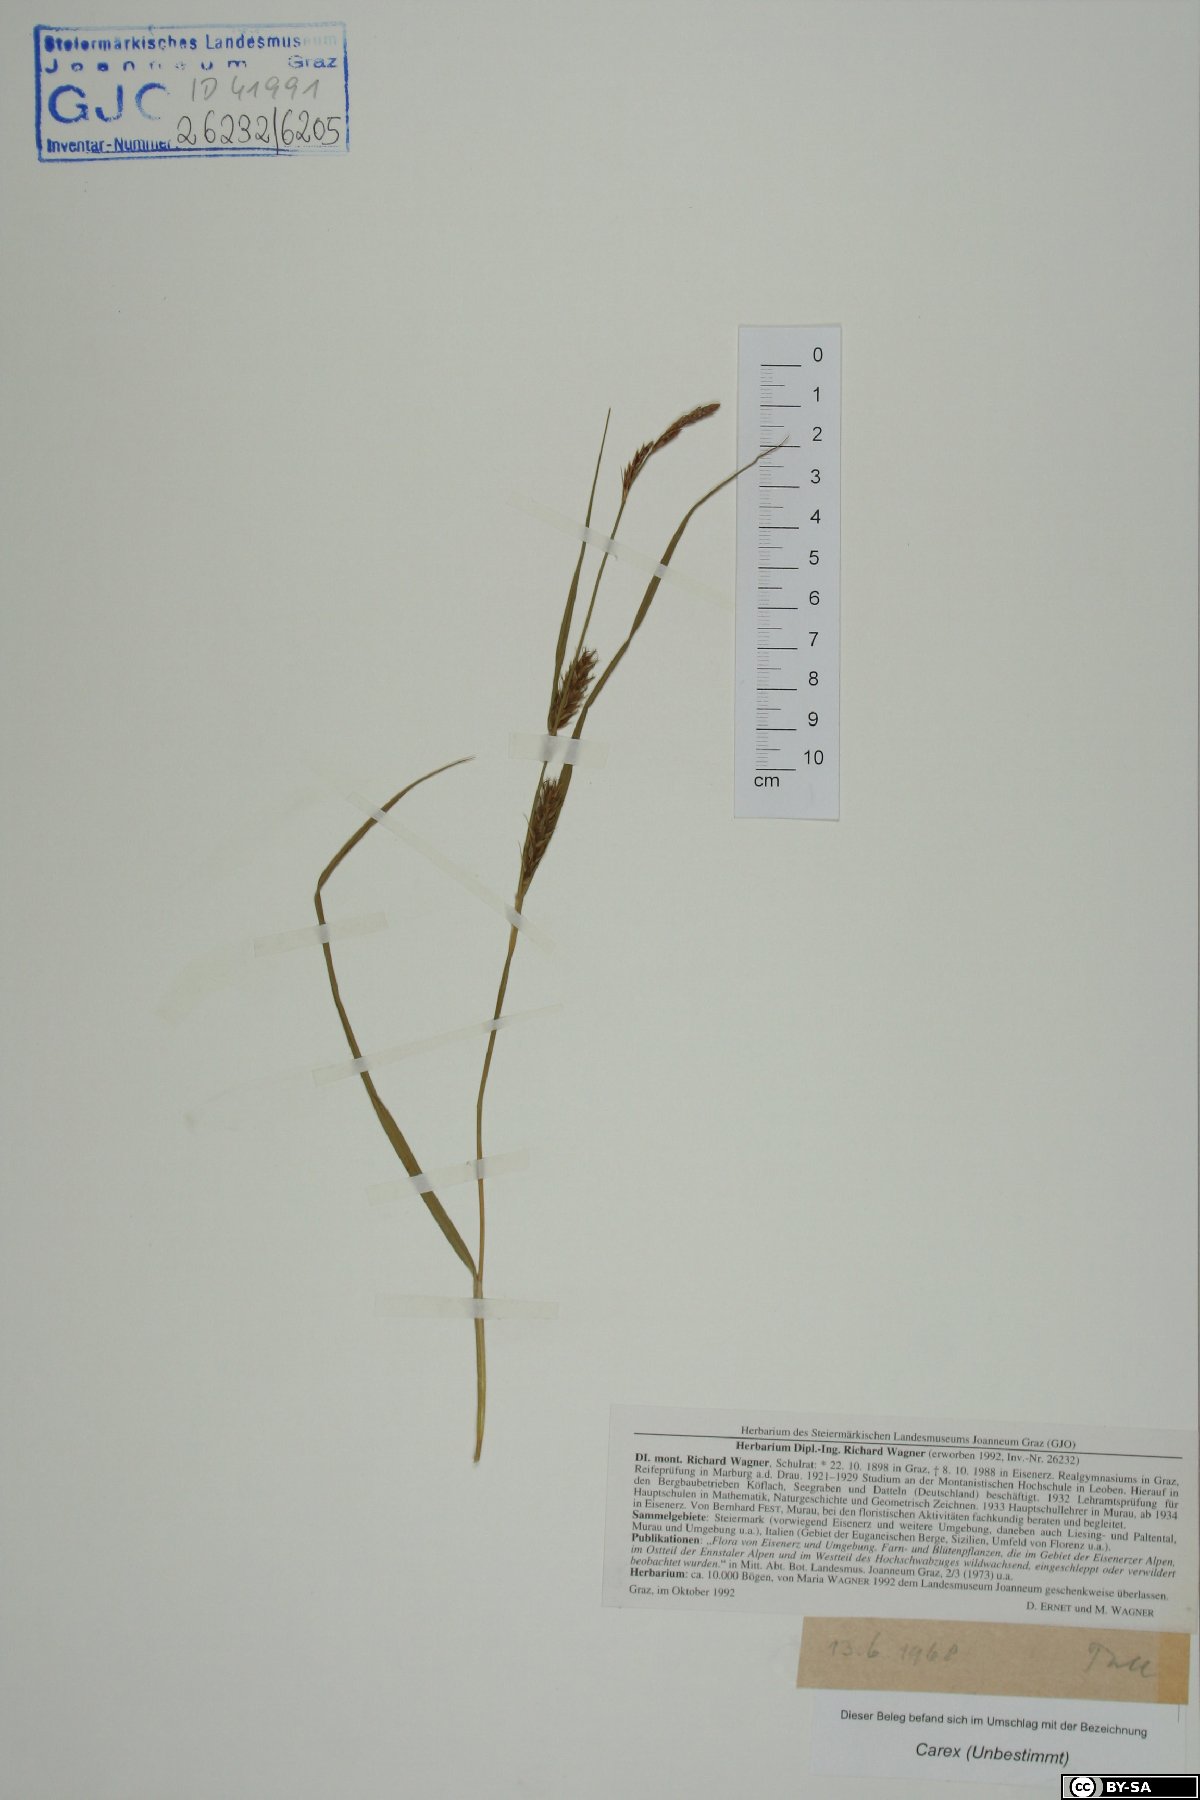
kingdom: Plantae
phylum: Tracheophyta
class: Liliopsida
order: Poales
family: Cyperaceae
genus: Carex
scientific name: Carex
